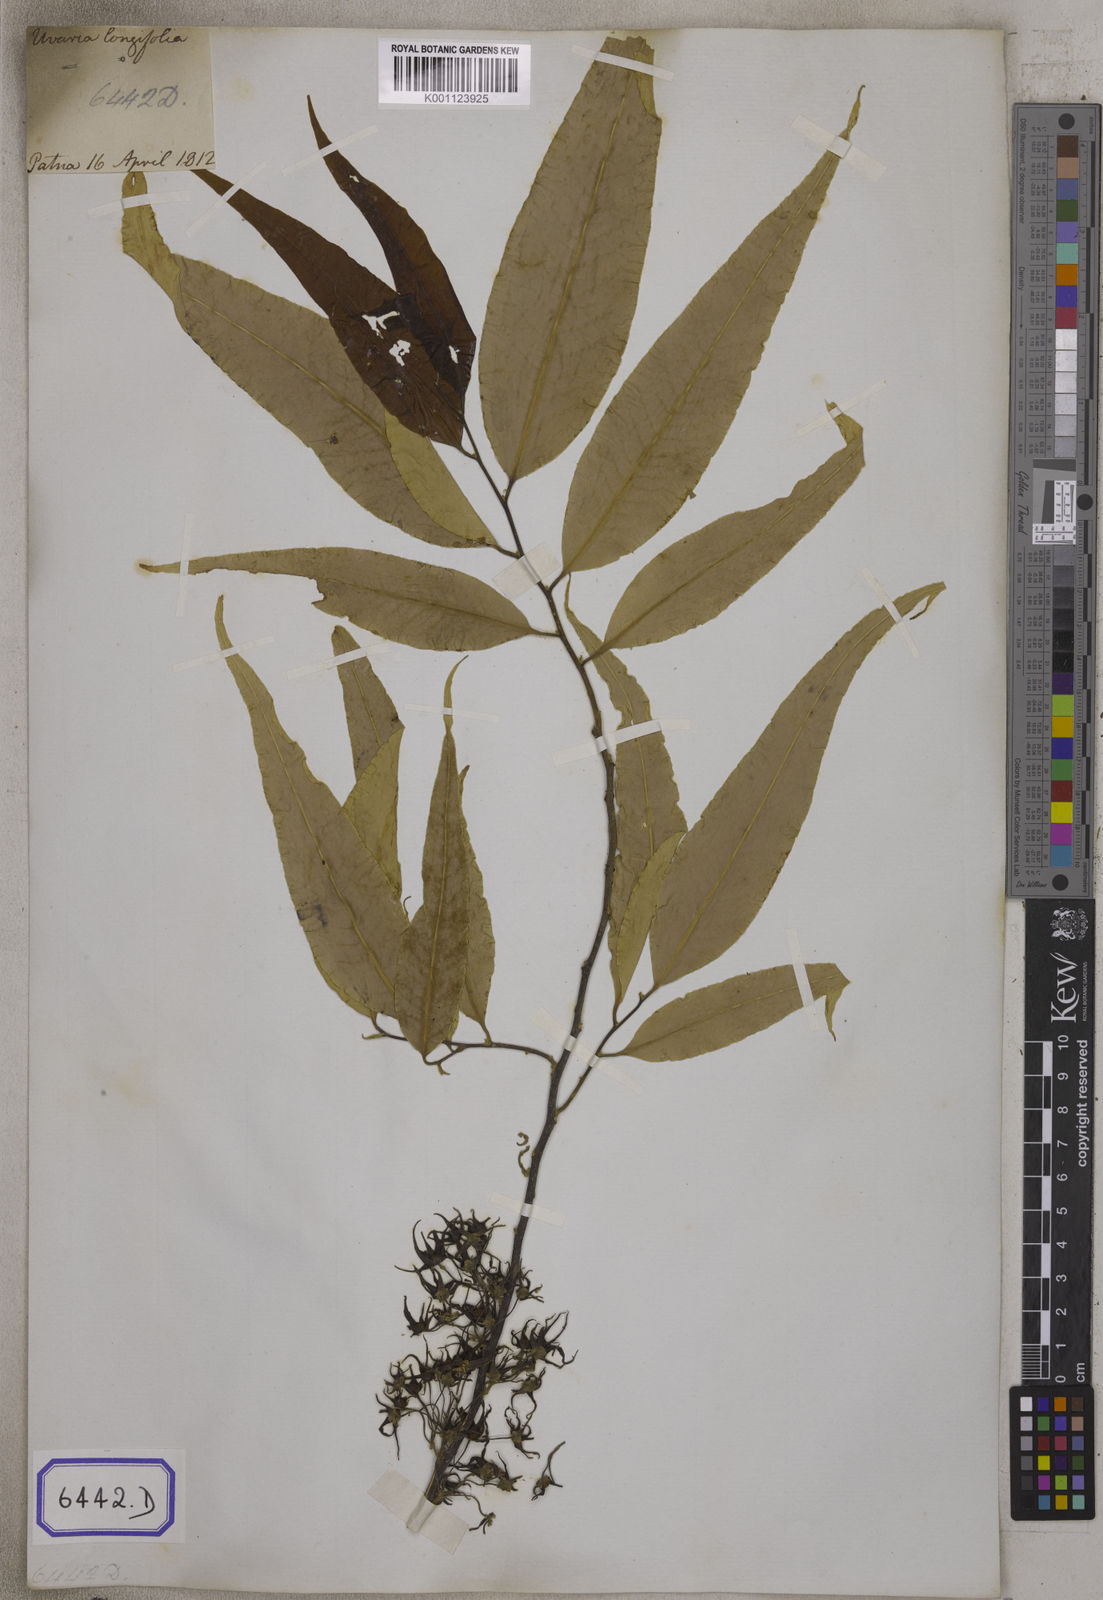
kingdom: Plantae
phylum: Tracheophyta
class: Magnoliopsida
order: Magnoliales
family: Annonaceae
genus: Polyalthia
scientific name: Polyalthia longifolia
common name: Cemetery-tree
